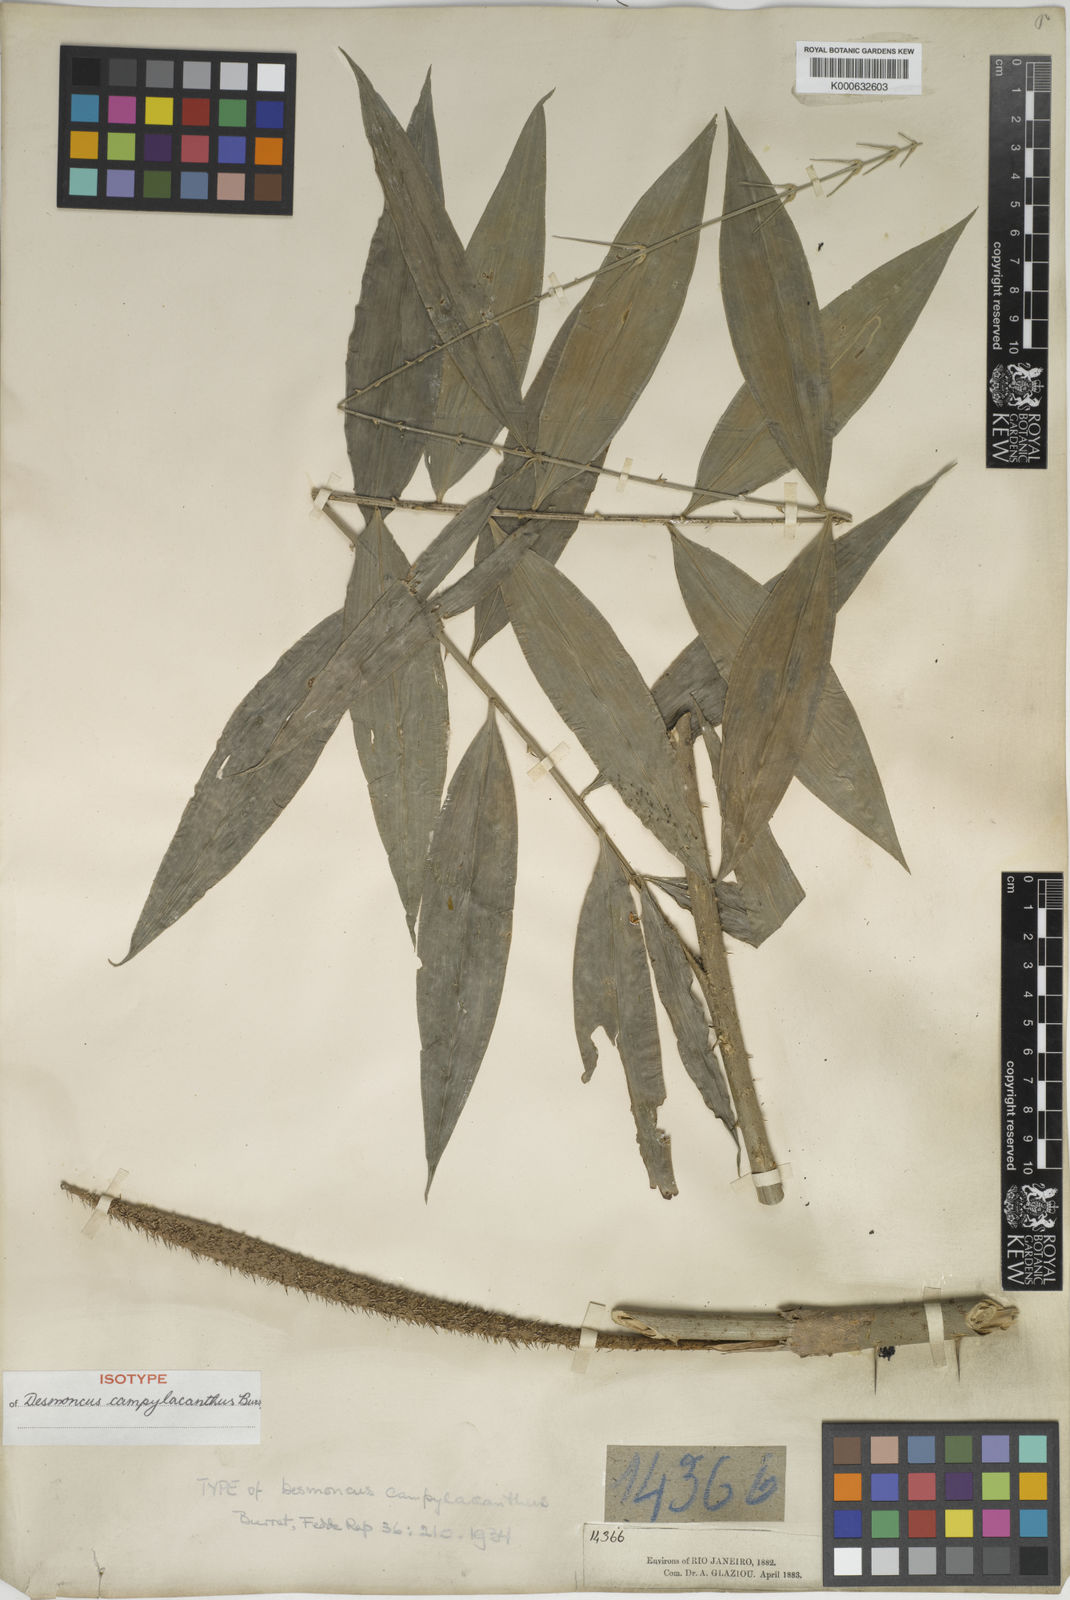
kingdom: Plantae
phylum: Tracheophyta
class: Liliopsida
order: Arecales
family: Arecaceae
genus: Desmoncus
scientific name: Desmoncus polyacanthos
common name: Suriname bramble palm
